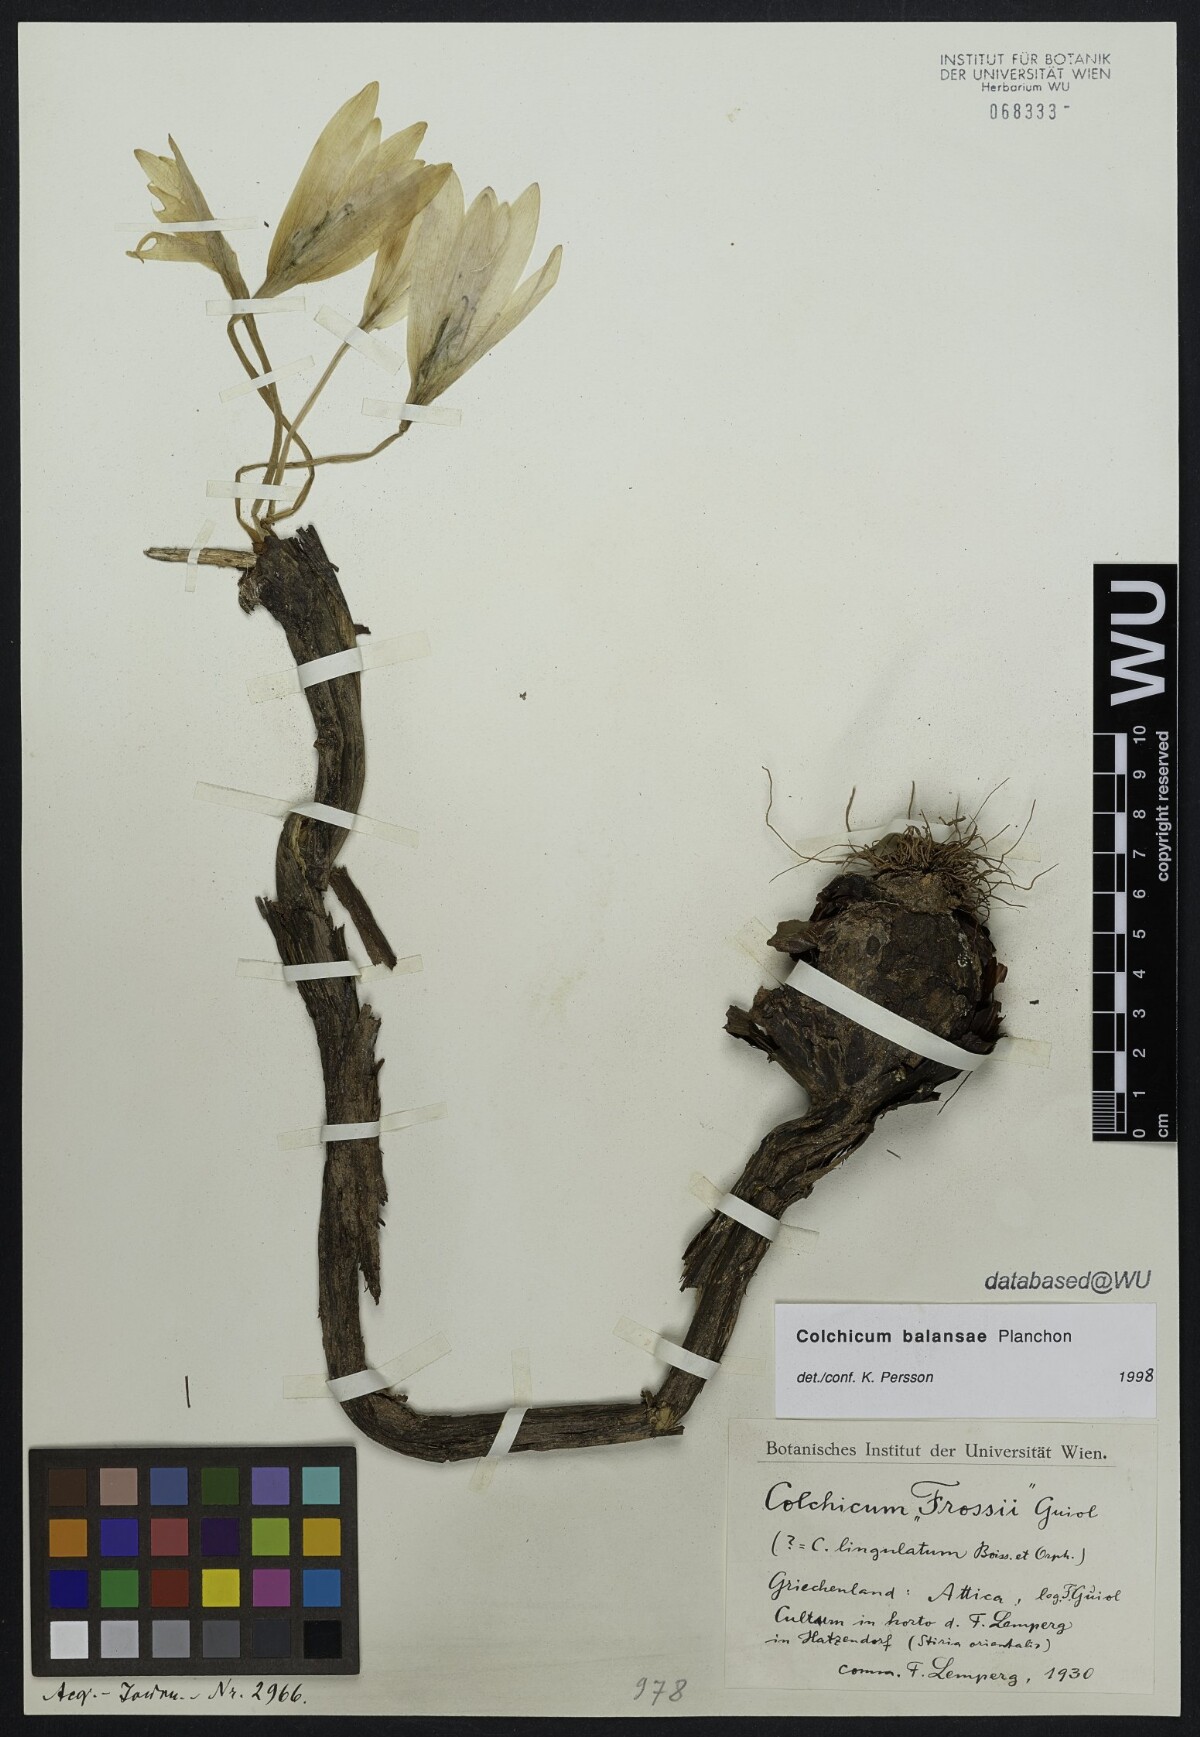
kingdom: Plantae
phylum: Tracheophyta
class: Liliopsida
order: Liliales
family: Colchicaceae
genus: Colchicum
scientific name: Colchicum
